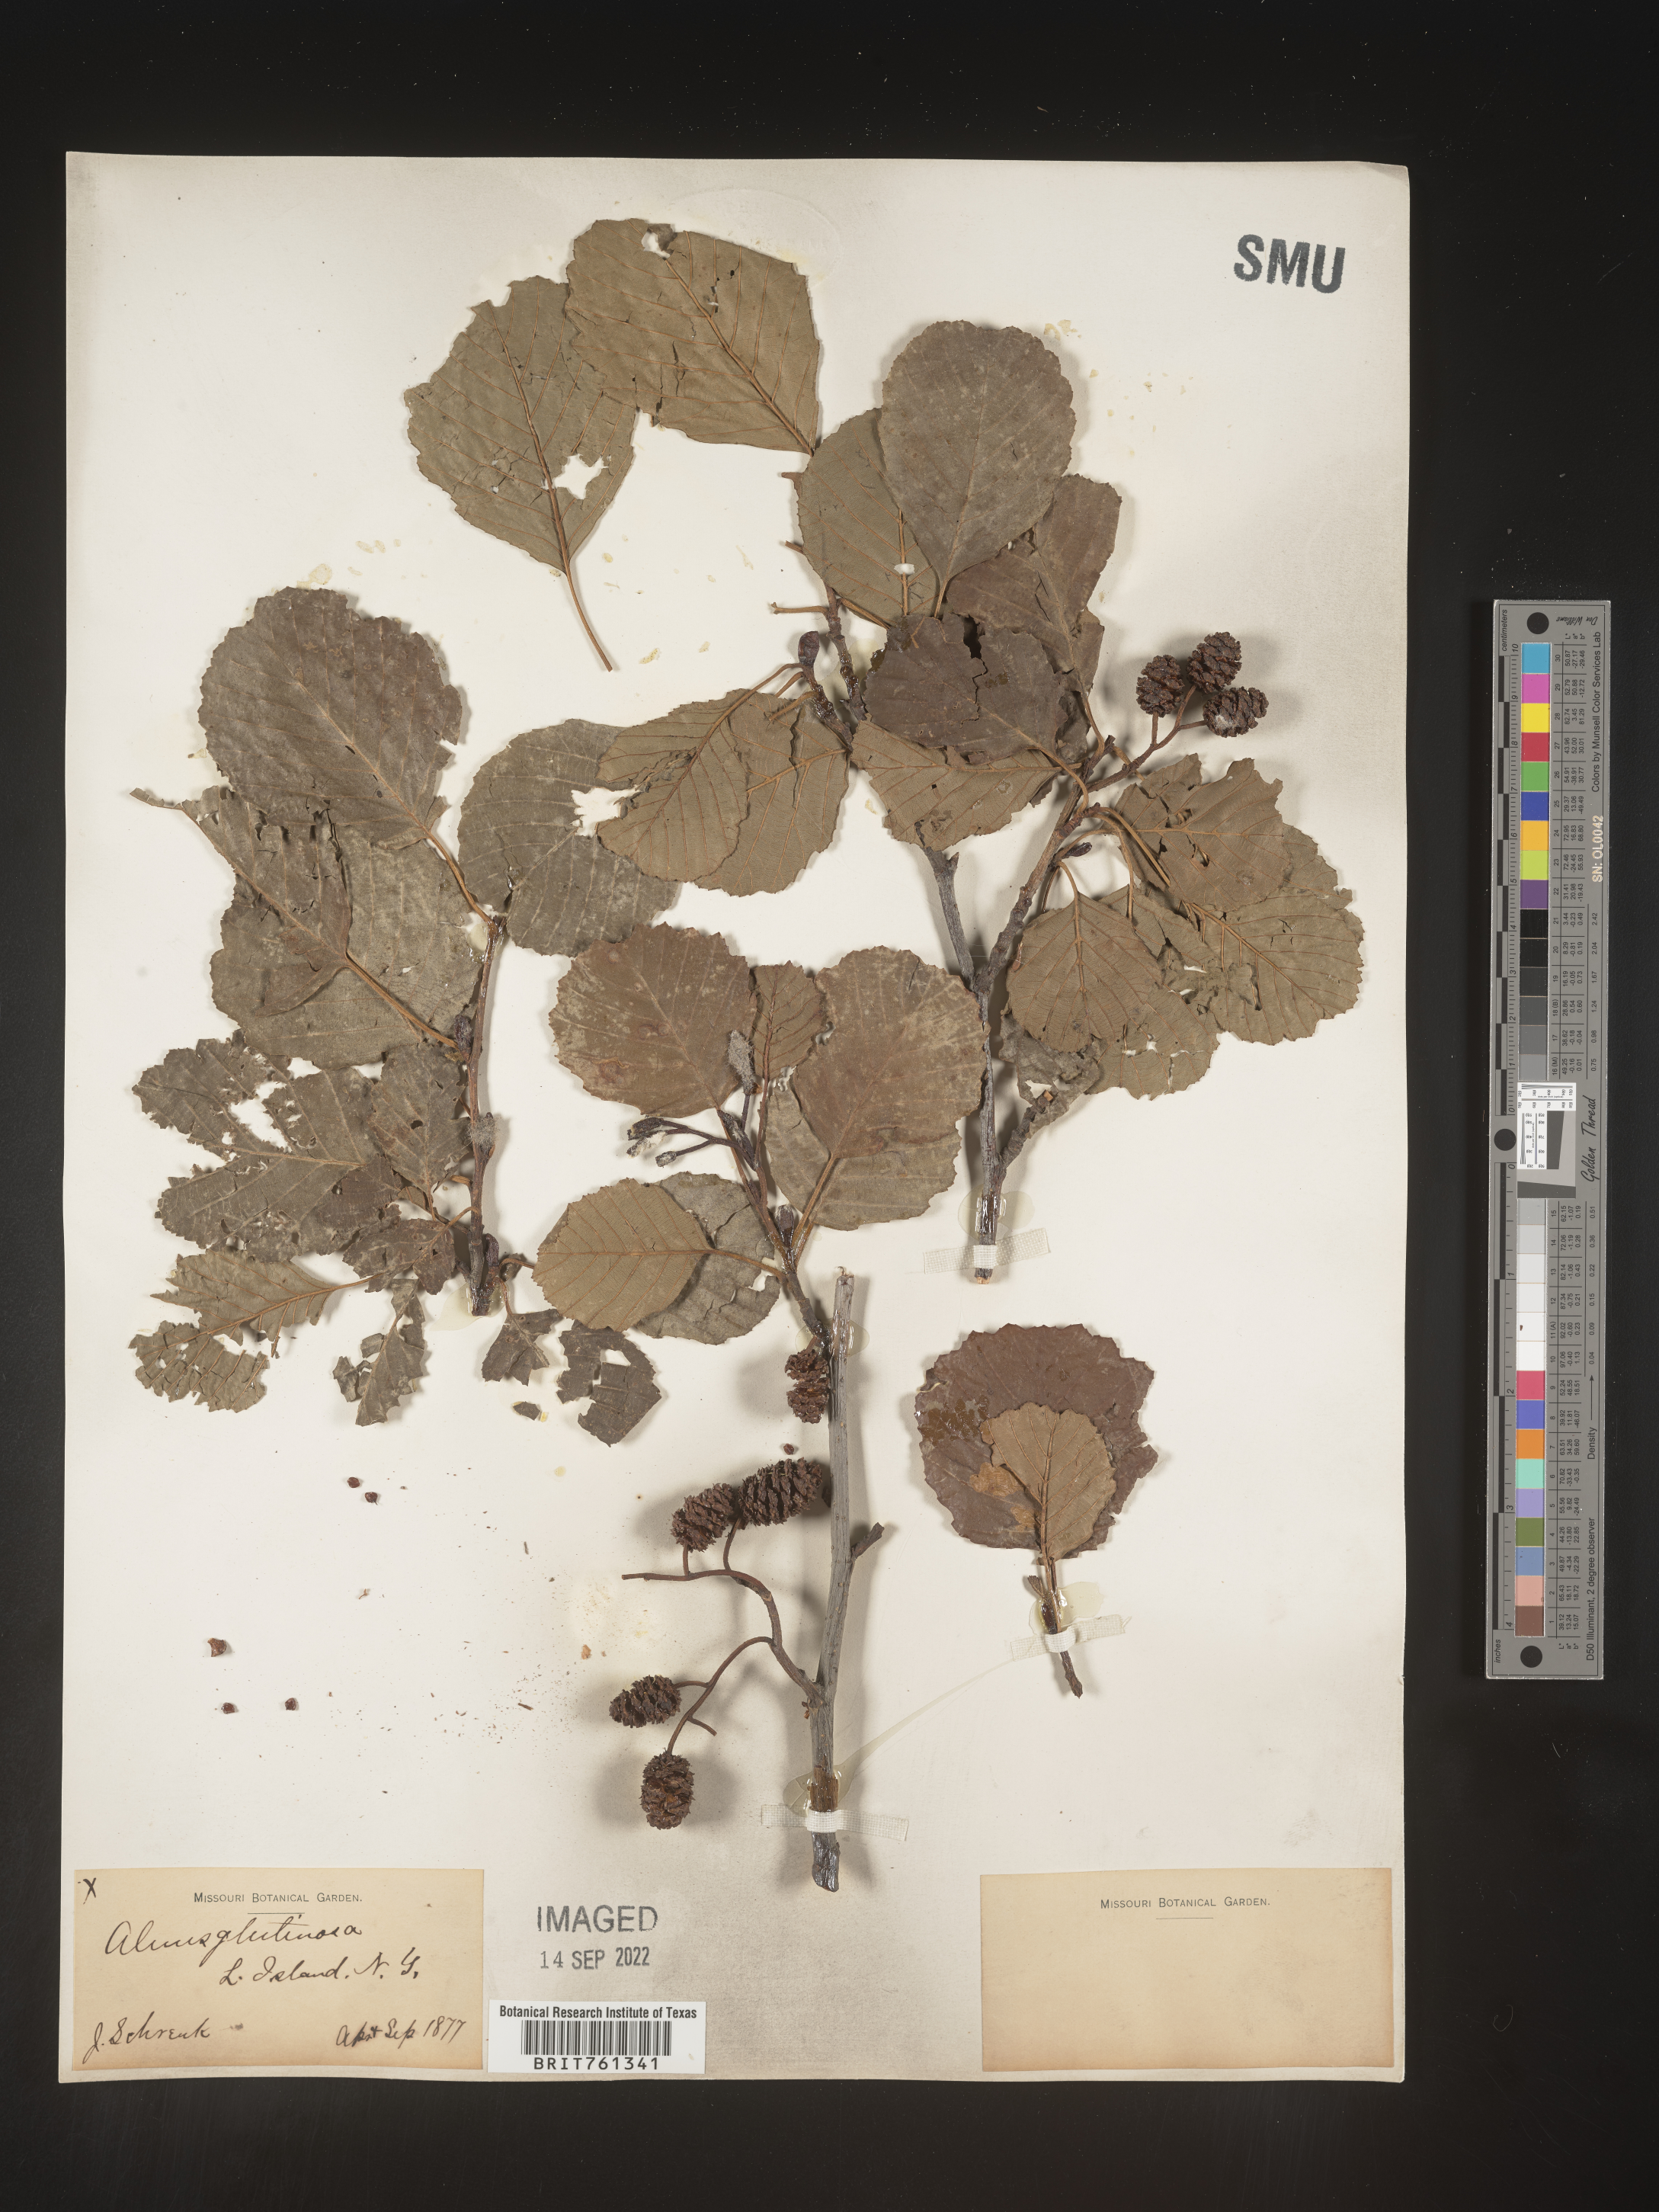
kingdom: Plantae
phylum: Tracheophyta
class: Magnoliopsida
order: Fagales
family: Betulaceae
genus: Alnus
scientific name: Alnus
